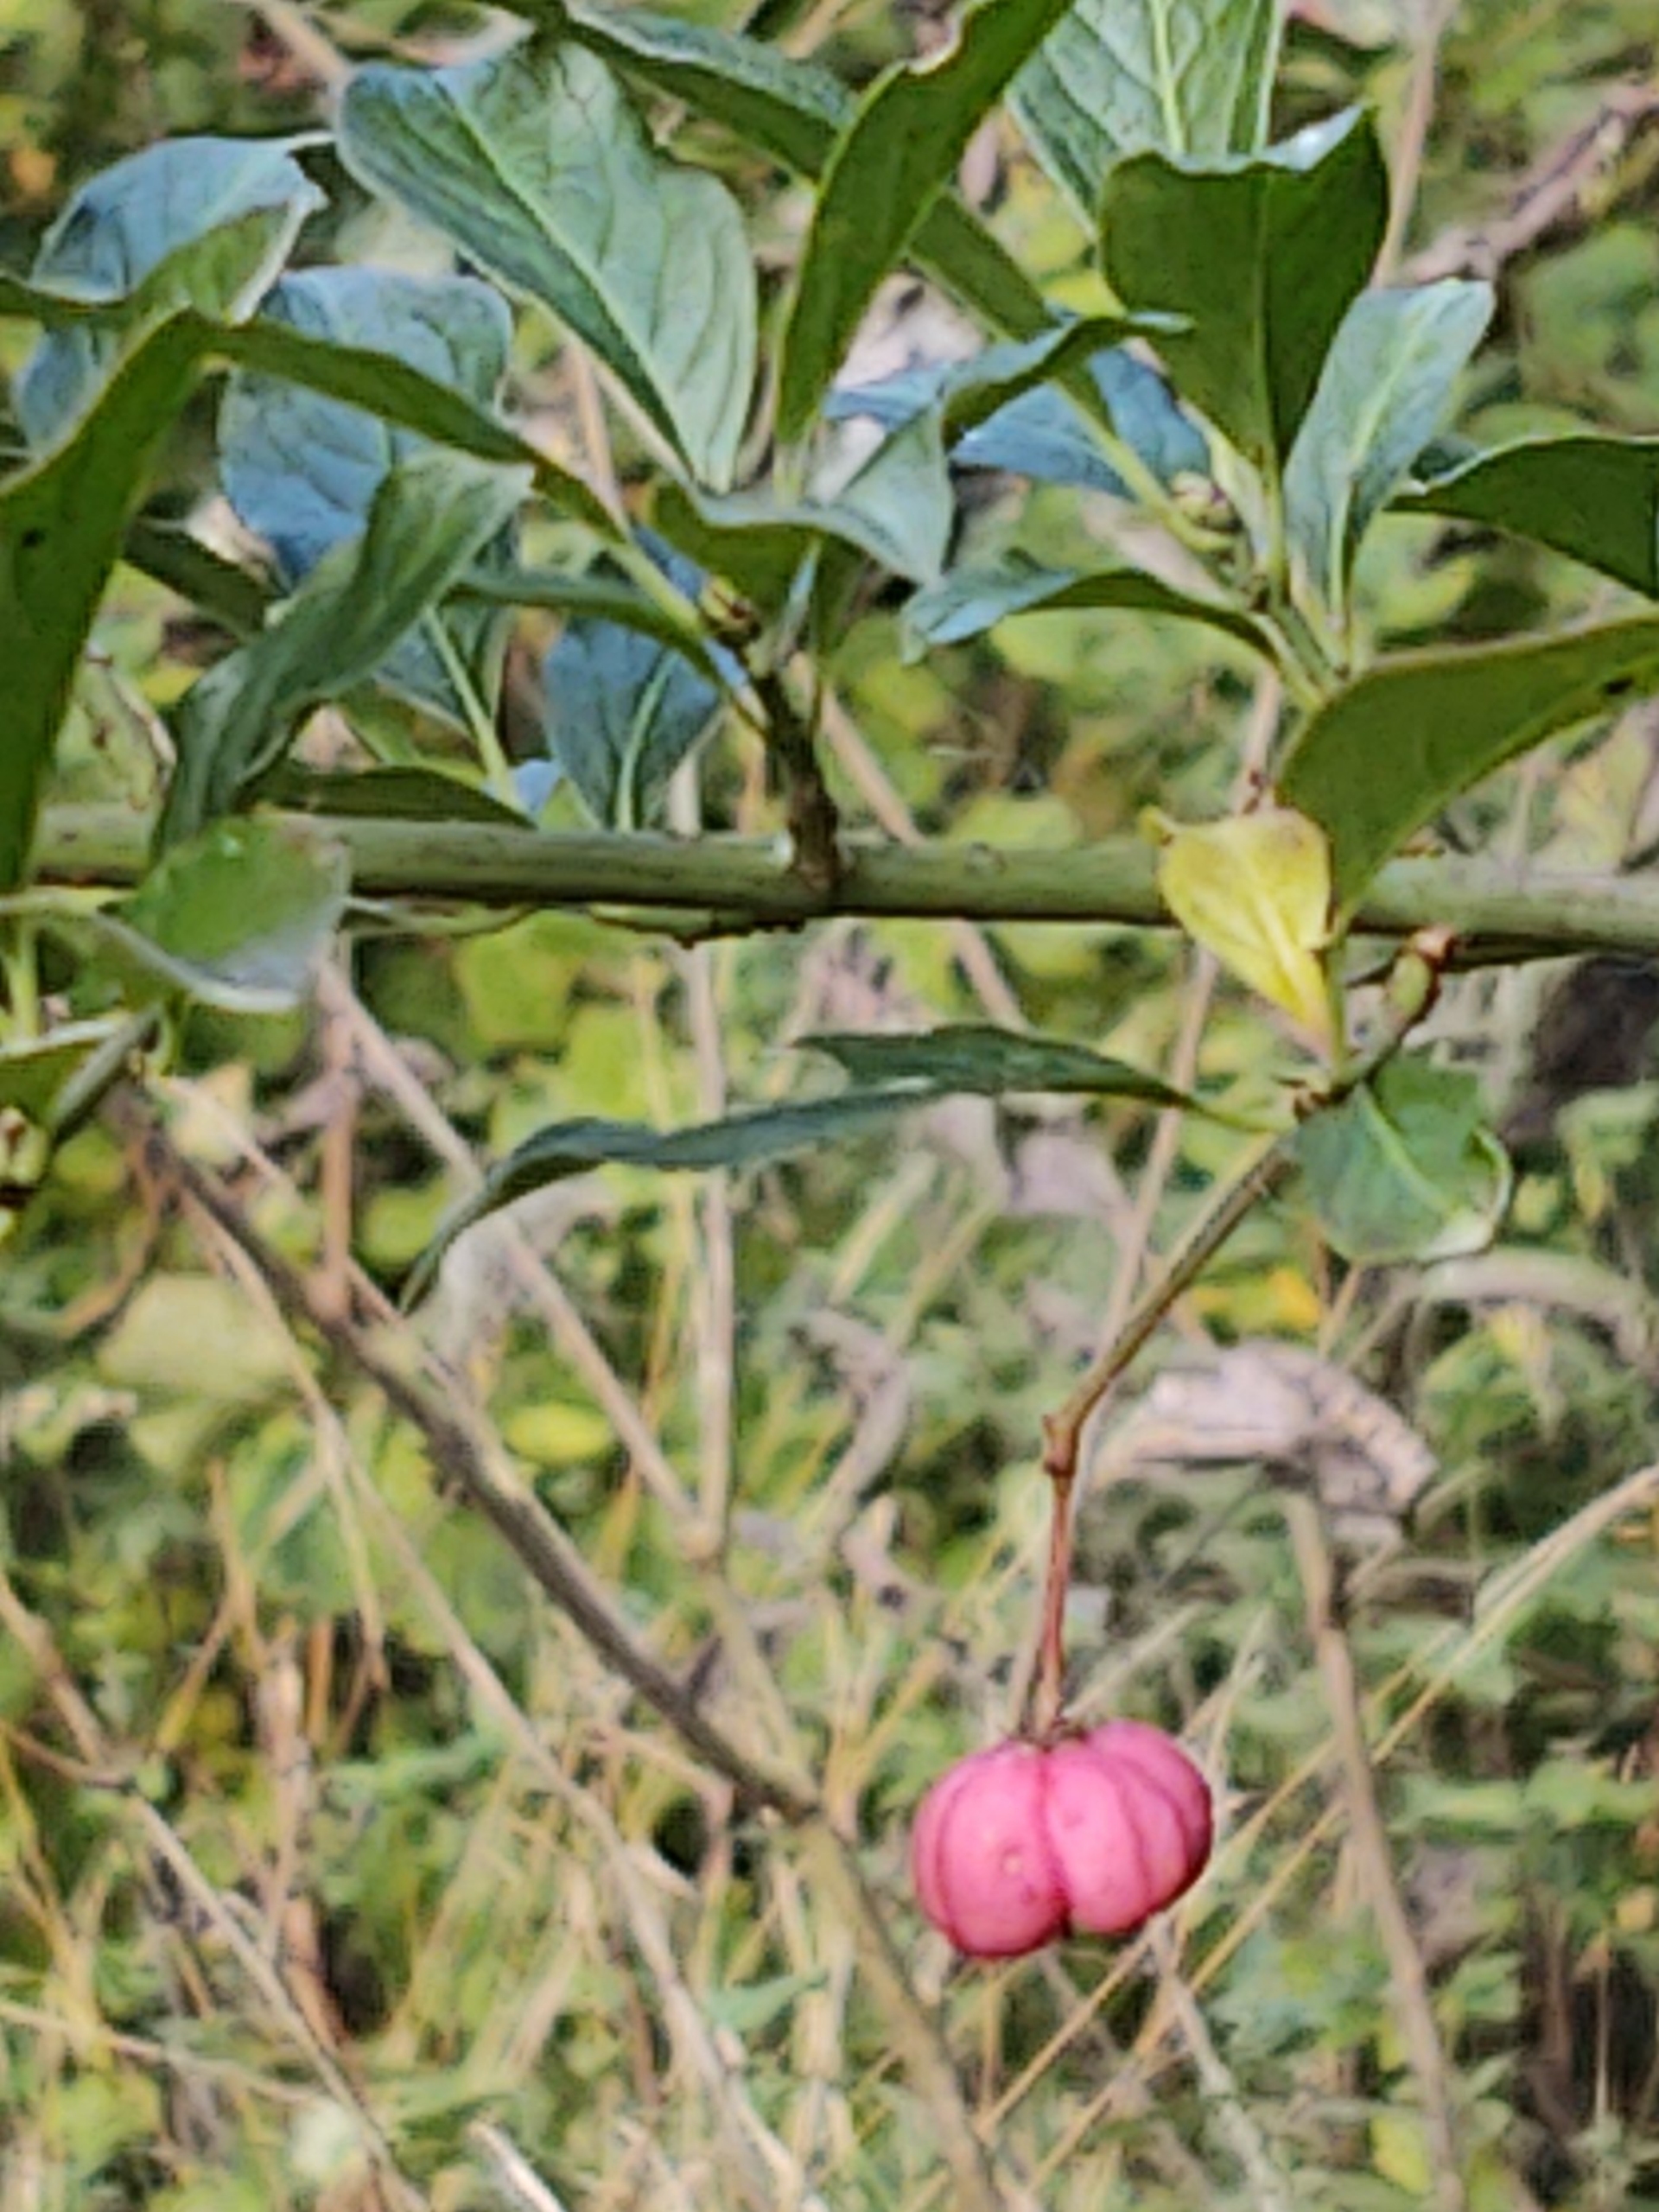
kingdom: Plantae
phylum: Tracheophyta
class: Magnoliopsida
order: Celastrales
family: Celastraceae
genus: Euonymus
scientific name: Euonymus europaeus
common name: Benved
